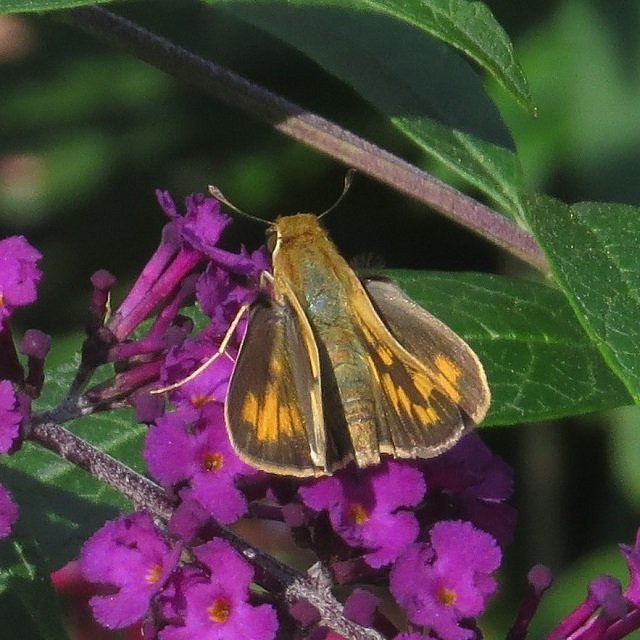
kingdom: Animalia
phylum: Arthropoda
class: Insecta
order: Lepidoptera
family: Hesperiidae
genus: Hylephila
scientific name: Hylephila phyleus
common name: Fiery Skipper
